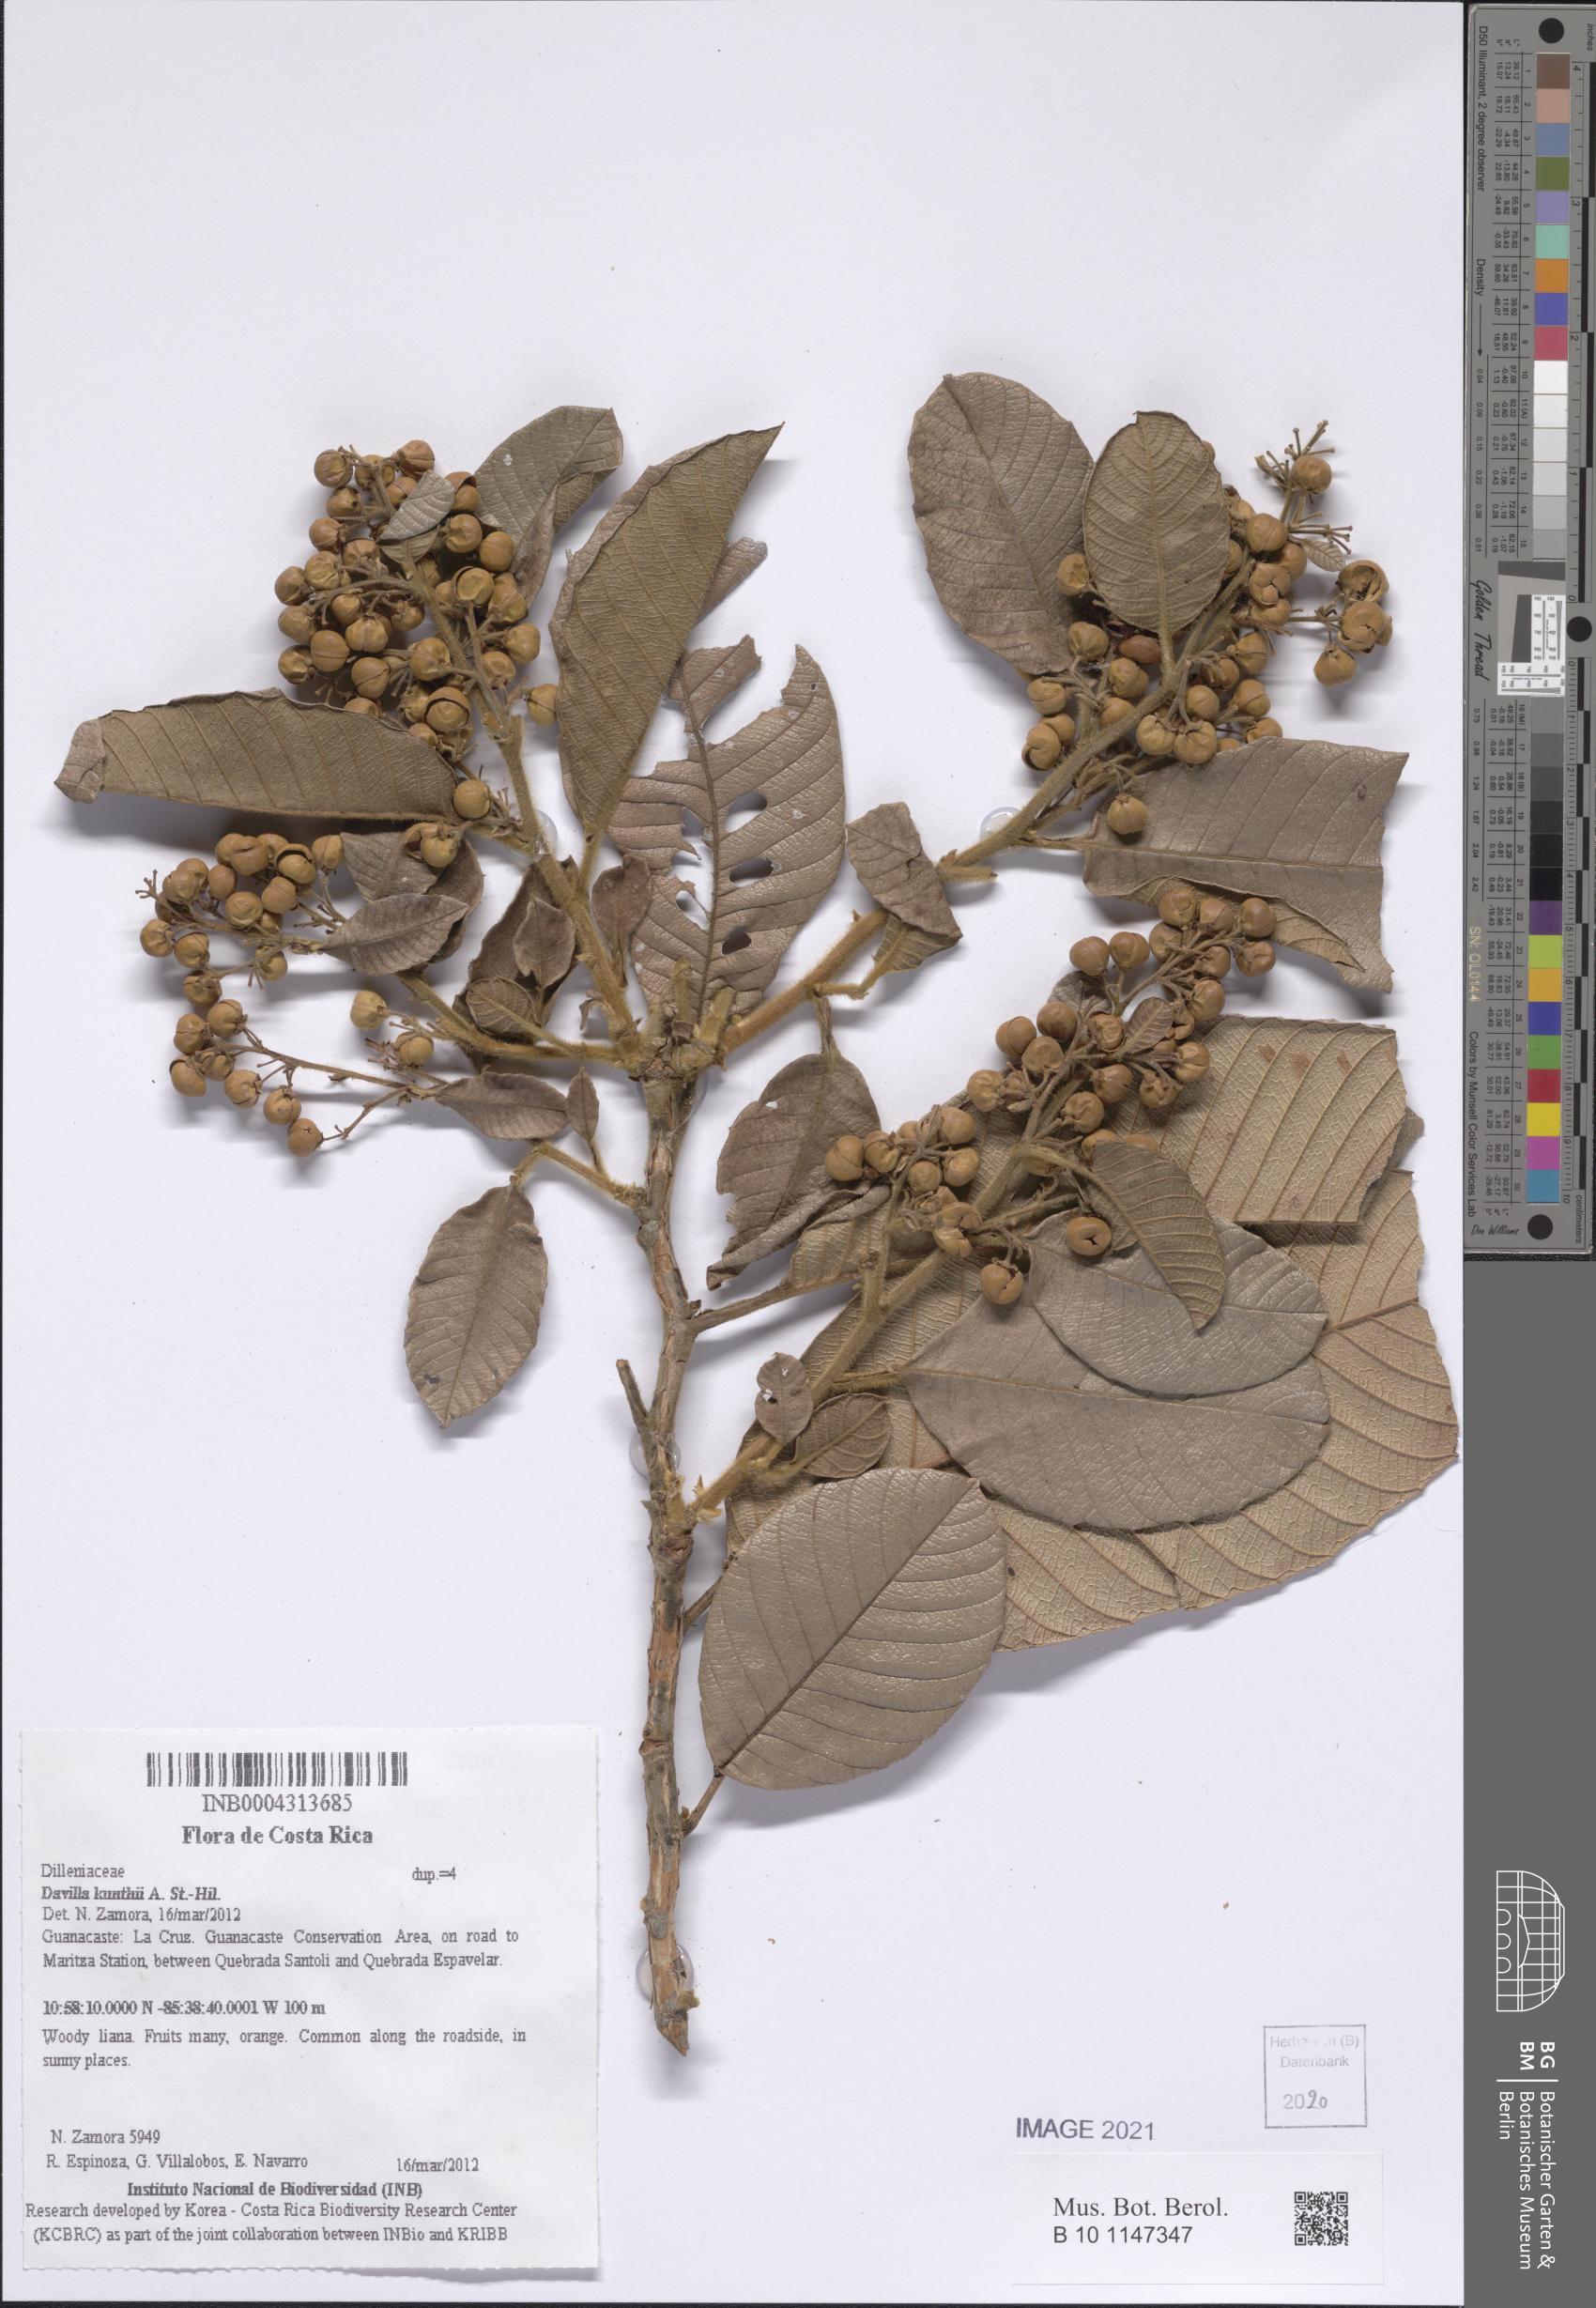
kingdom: Plantae
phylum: Tracheophyta
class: Magnoliopsida
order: Dilleniales
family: Dilleniaceae
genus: Davilla
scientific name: Davilla kunthii
